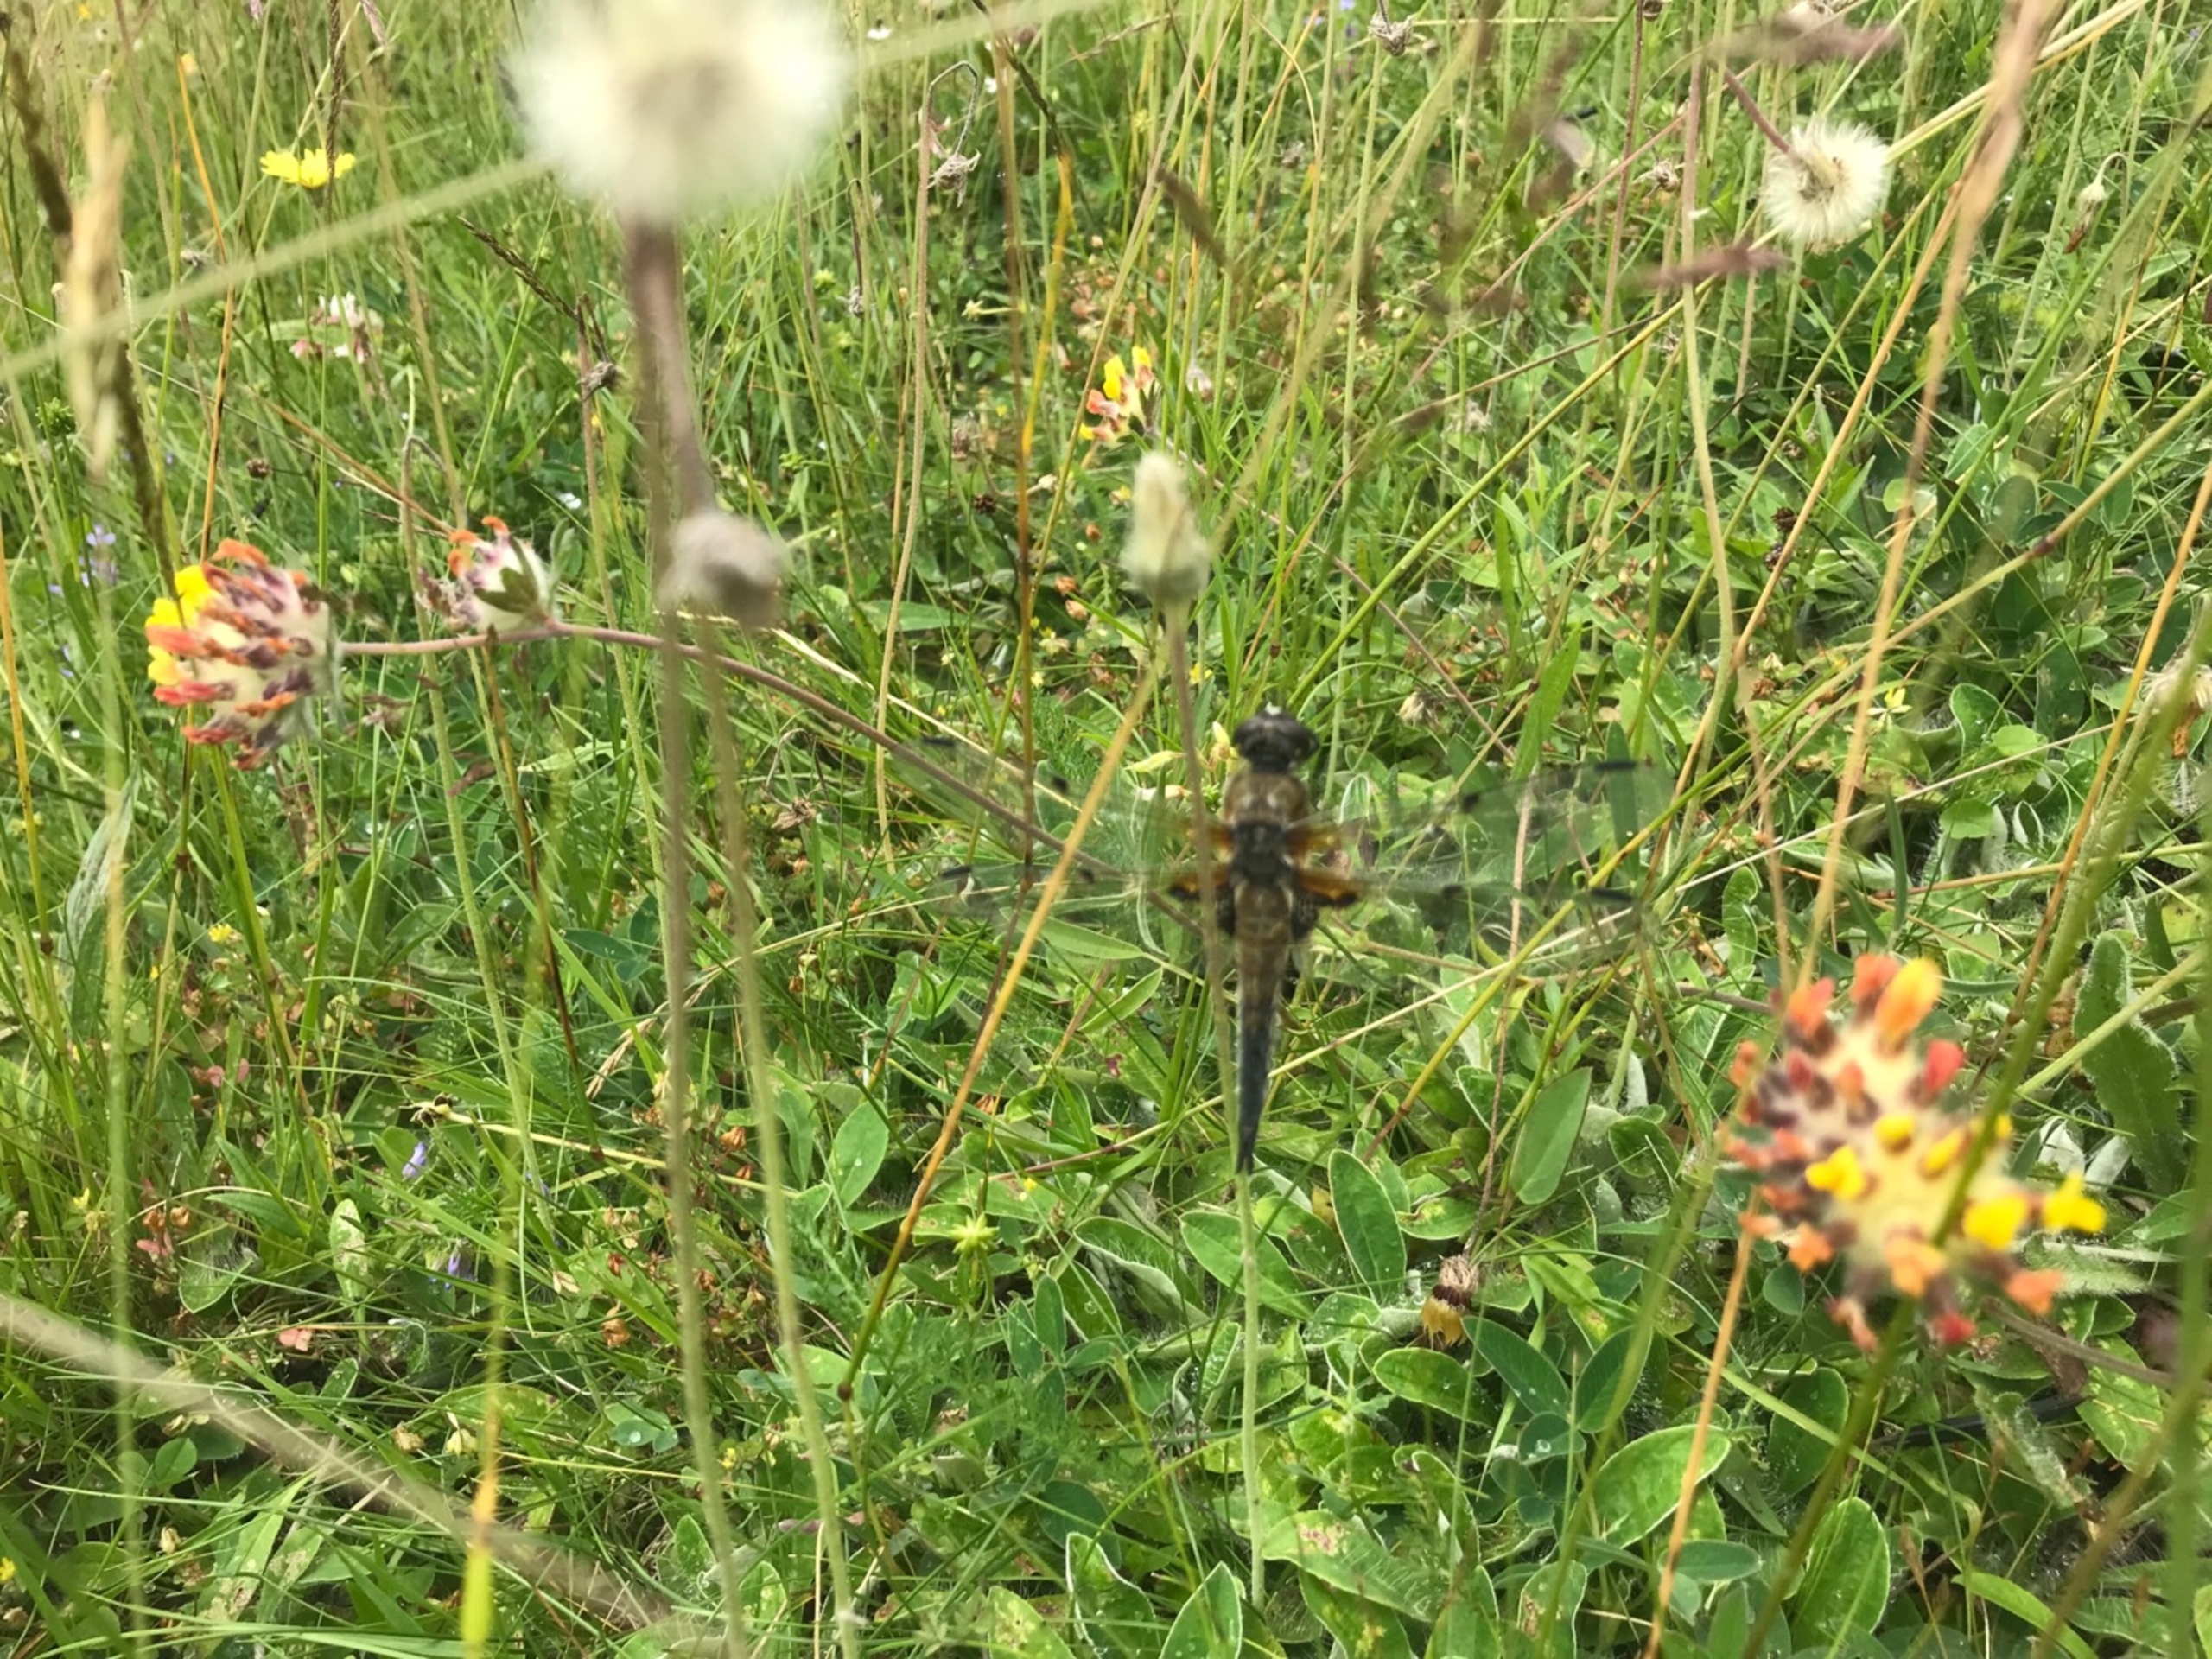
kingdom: Animalia
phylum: Arthropoda
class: Insecta
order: Odonata
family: Libellulidae
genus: Libellula
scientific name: Libellula quadrimaculata
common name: Fireplettet libel
